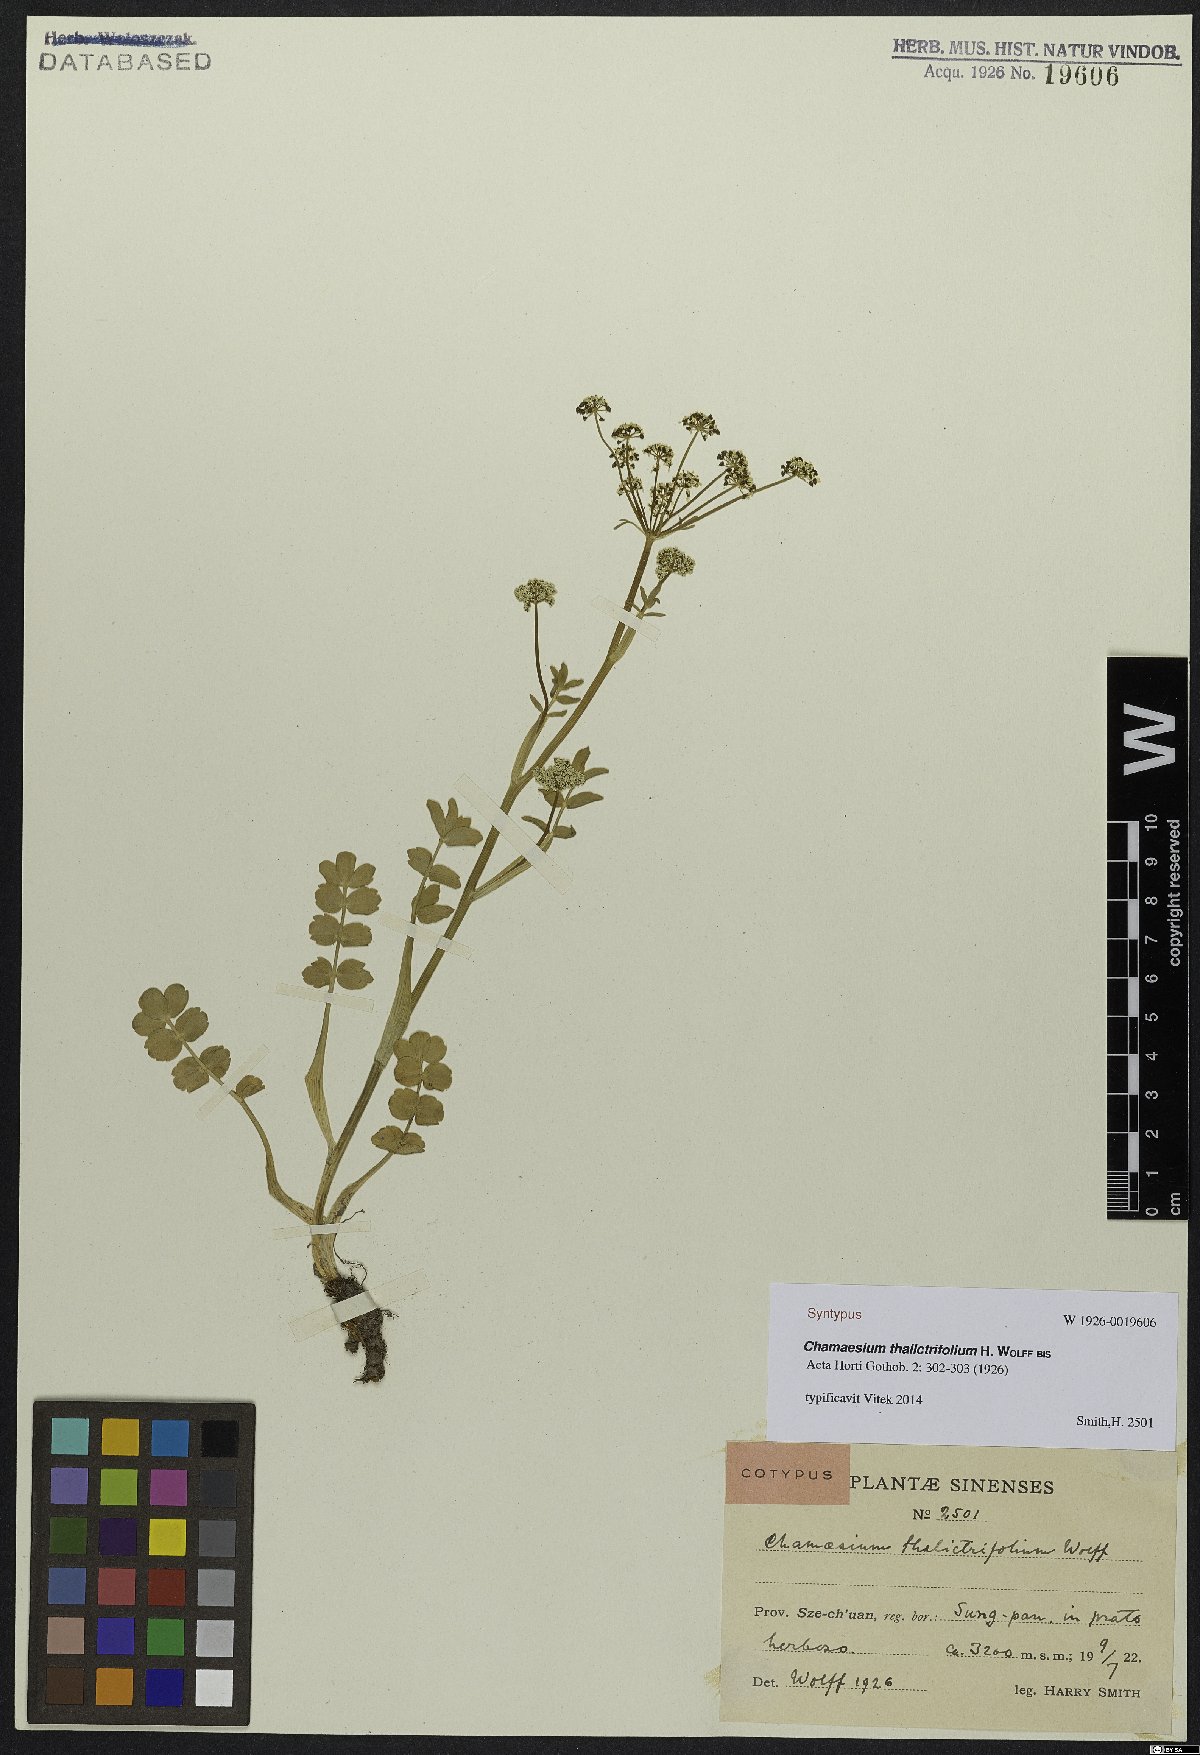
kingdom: Plantae
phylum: Tracheophyta
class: Magnoliopsida
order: Apiales
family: Apiaceae
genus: Chamaesium
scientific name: Chamaesium thalictrifolium
